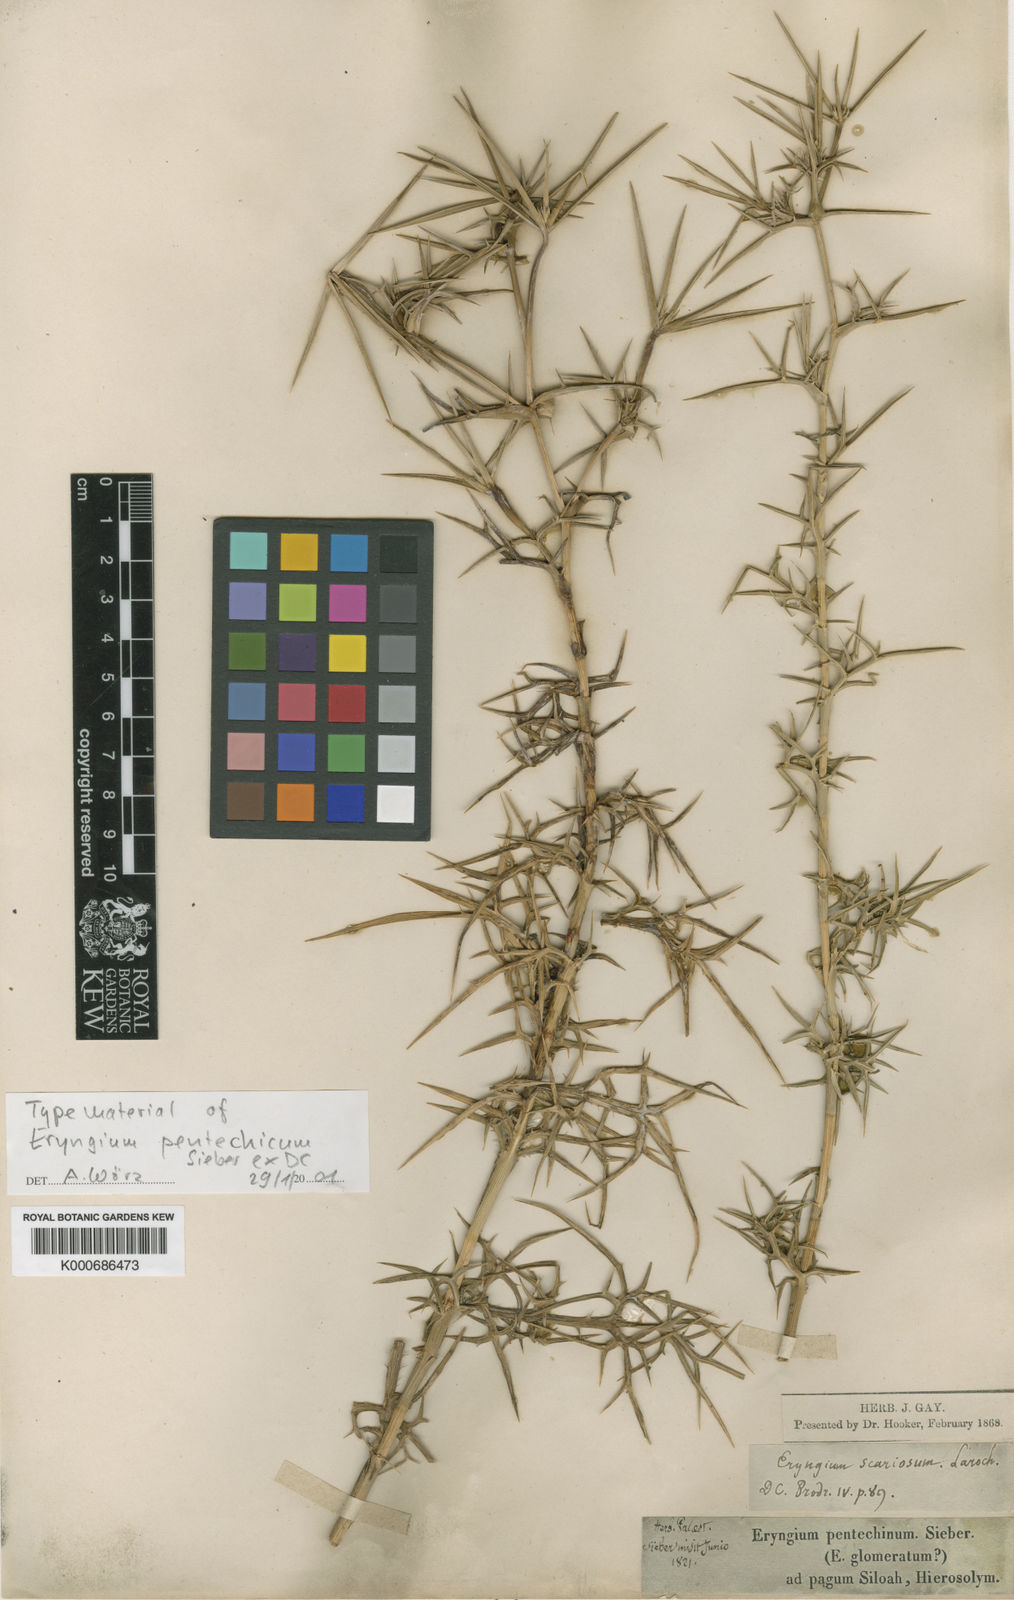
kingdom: Plantae
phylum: Tracheophyta
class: Magnoliopsida
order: Apiales
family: Apiaceae
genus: Eryngium
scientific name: Eryngium
